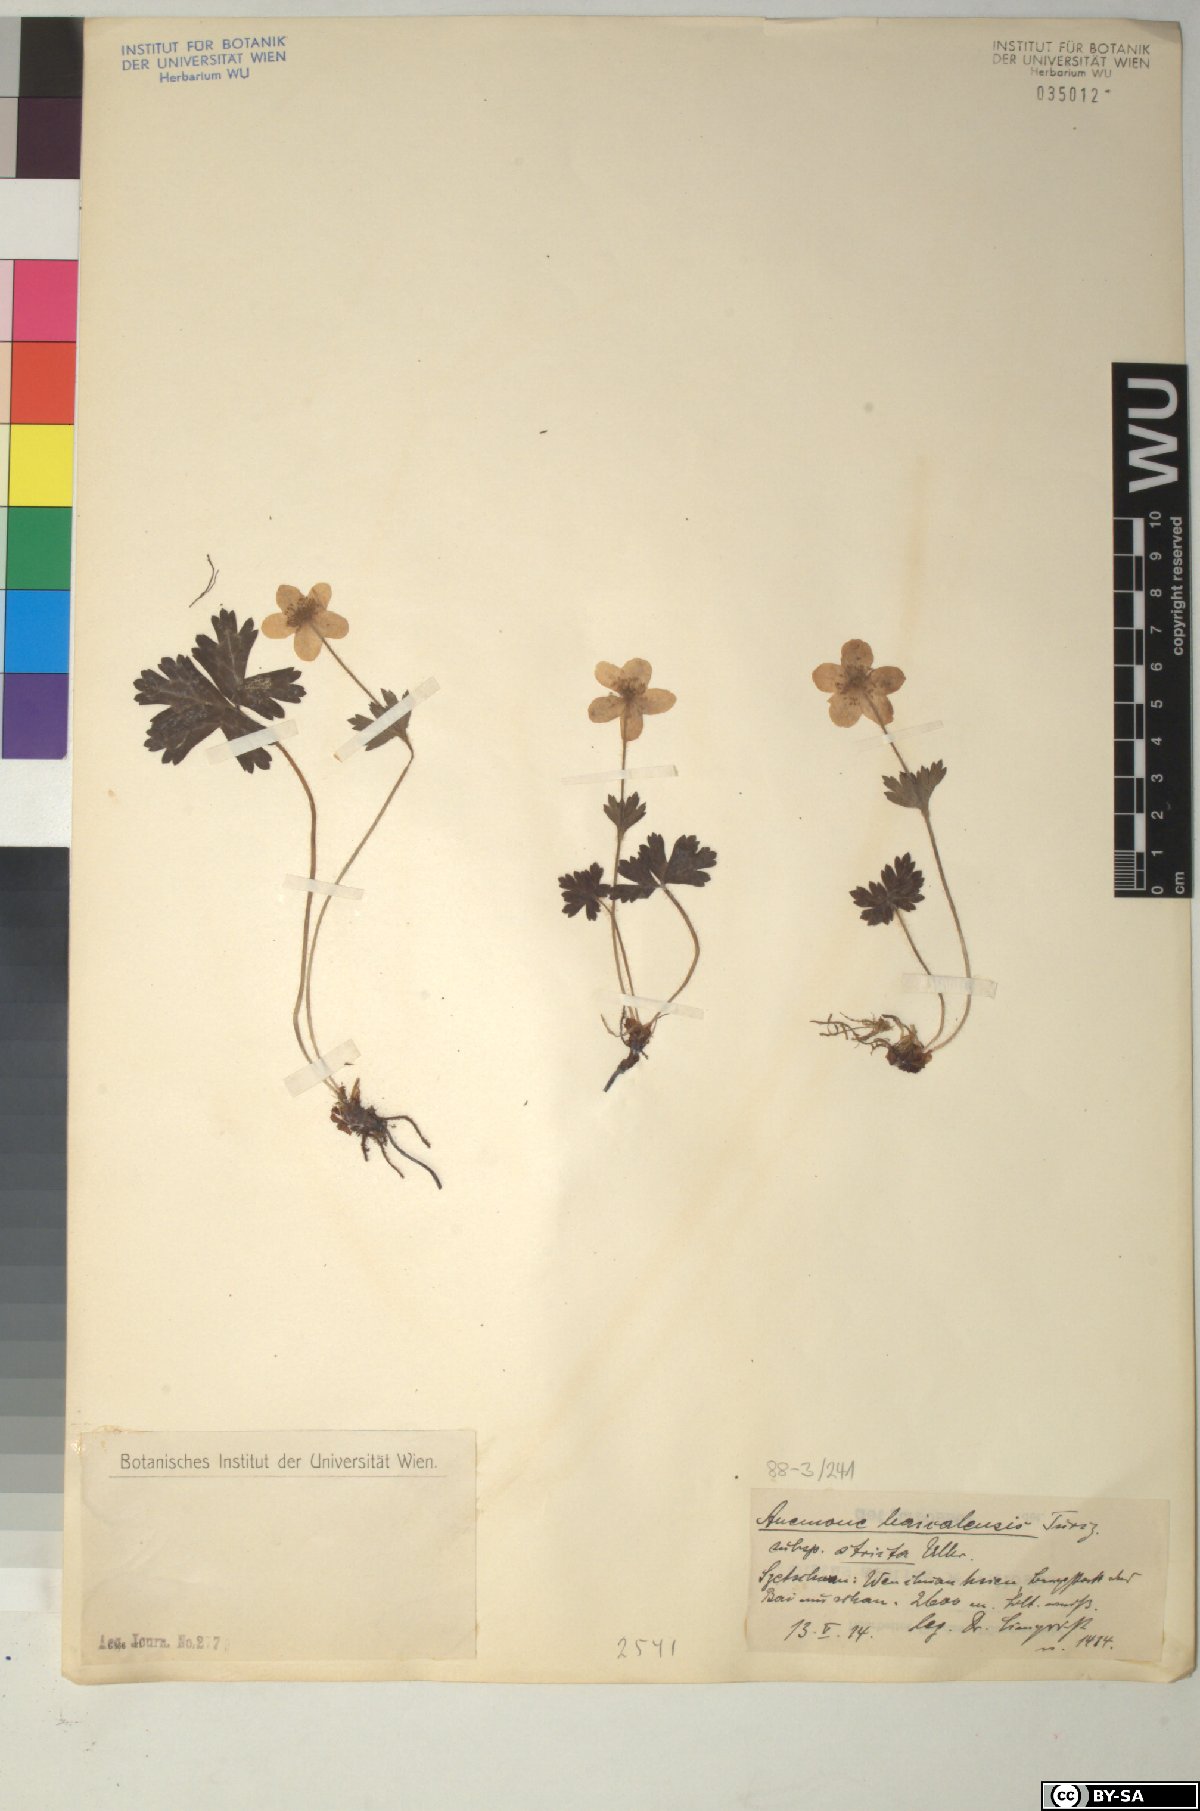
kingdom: Plantae
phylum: Tracheophyta
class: Magnoliopsida
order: Ranunculales
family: Ranunculaceae
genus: Anemonastrum
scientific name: Anemonastrum baicalense
